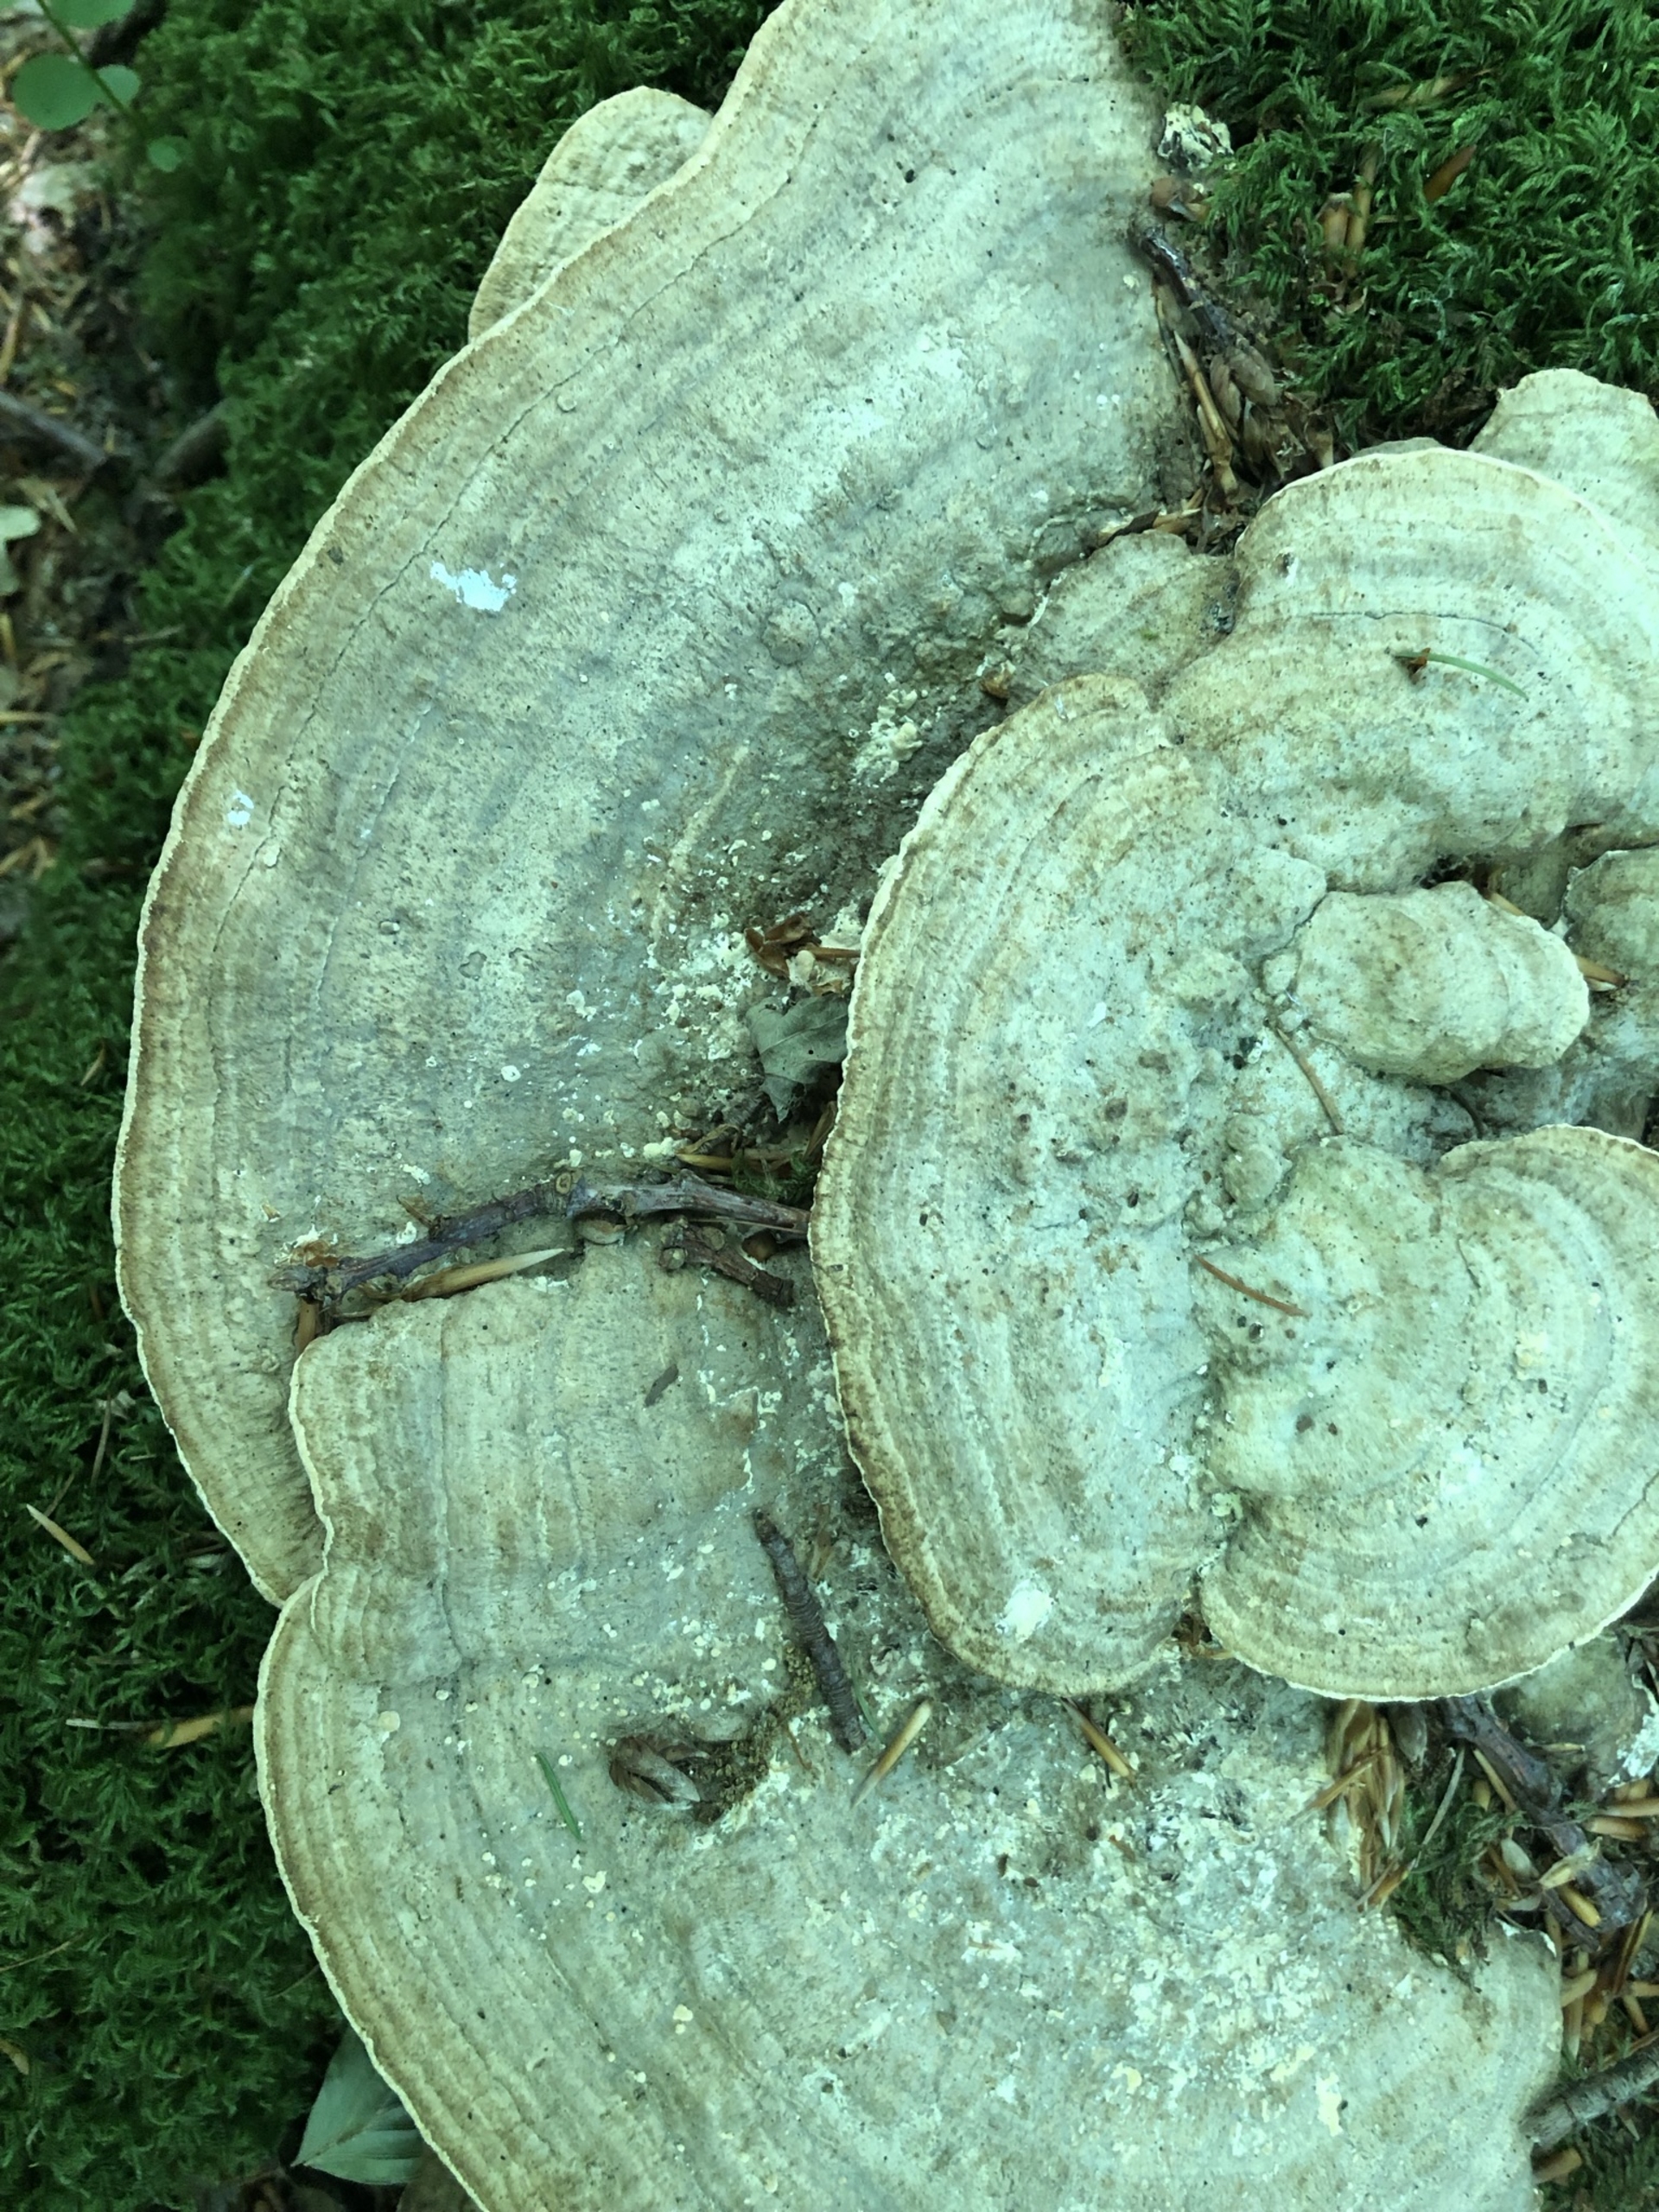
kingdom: Fungi
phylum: Basidiomycota
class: Agaricomycetes
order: Polyporales
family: Fomitopsidaceae
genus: Daedalea
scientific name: Daedalea quercina
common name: Ege-labyrintsvamp
